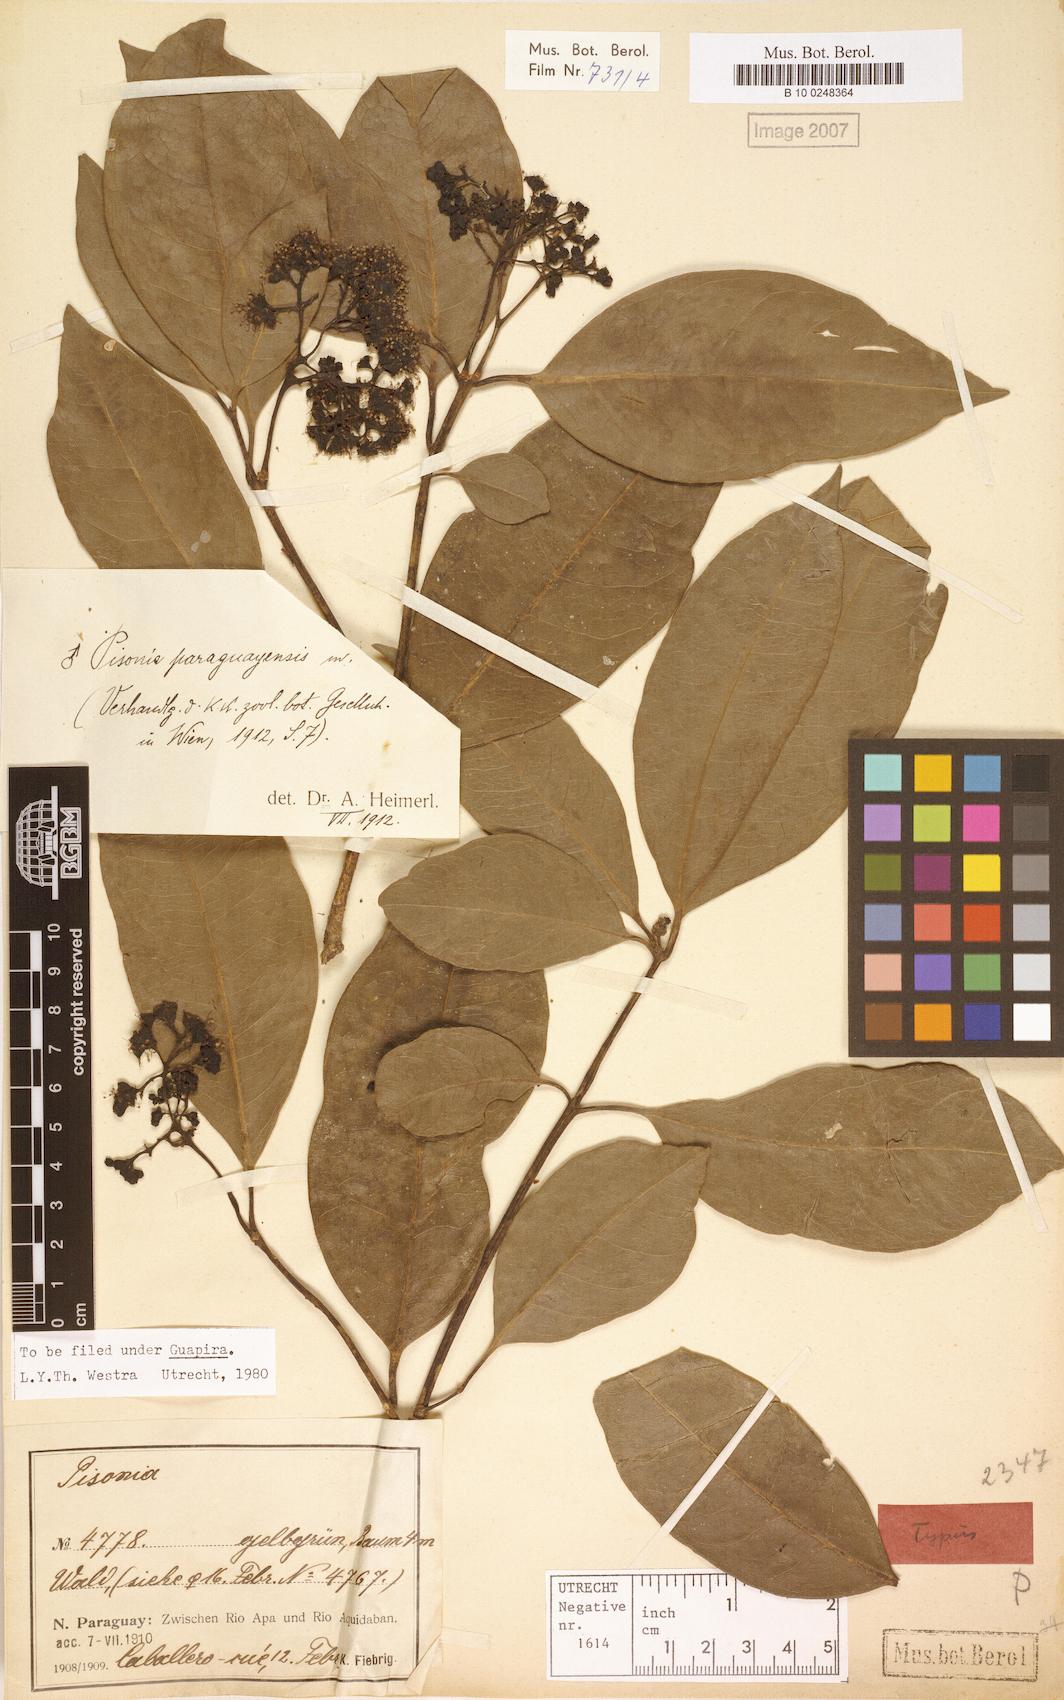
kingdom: Plantae
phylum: Tracheophyta
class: Magnoliopsida
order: Caryophyllales
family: Nyctaginaceae
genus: Guapira
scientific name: Guapira paraguayensis
